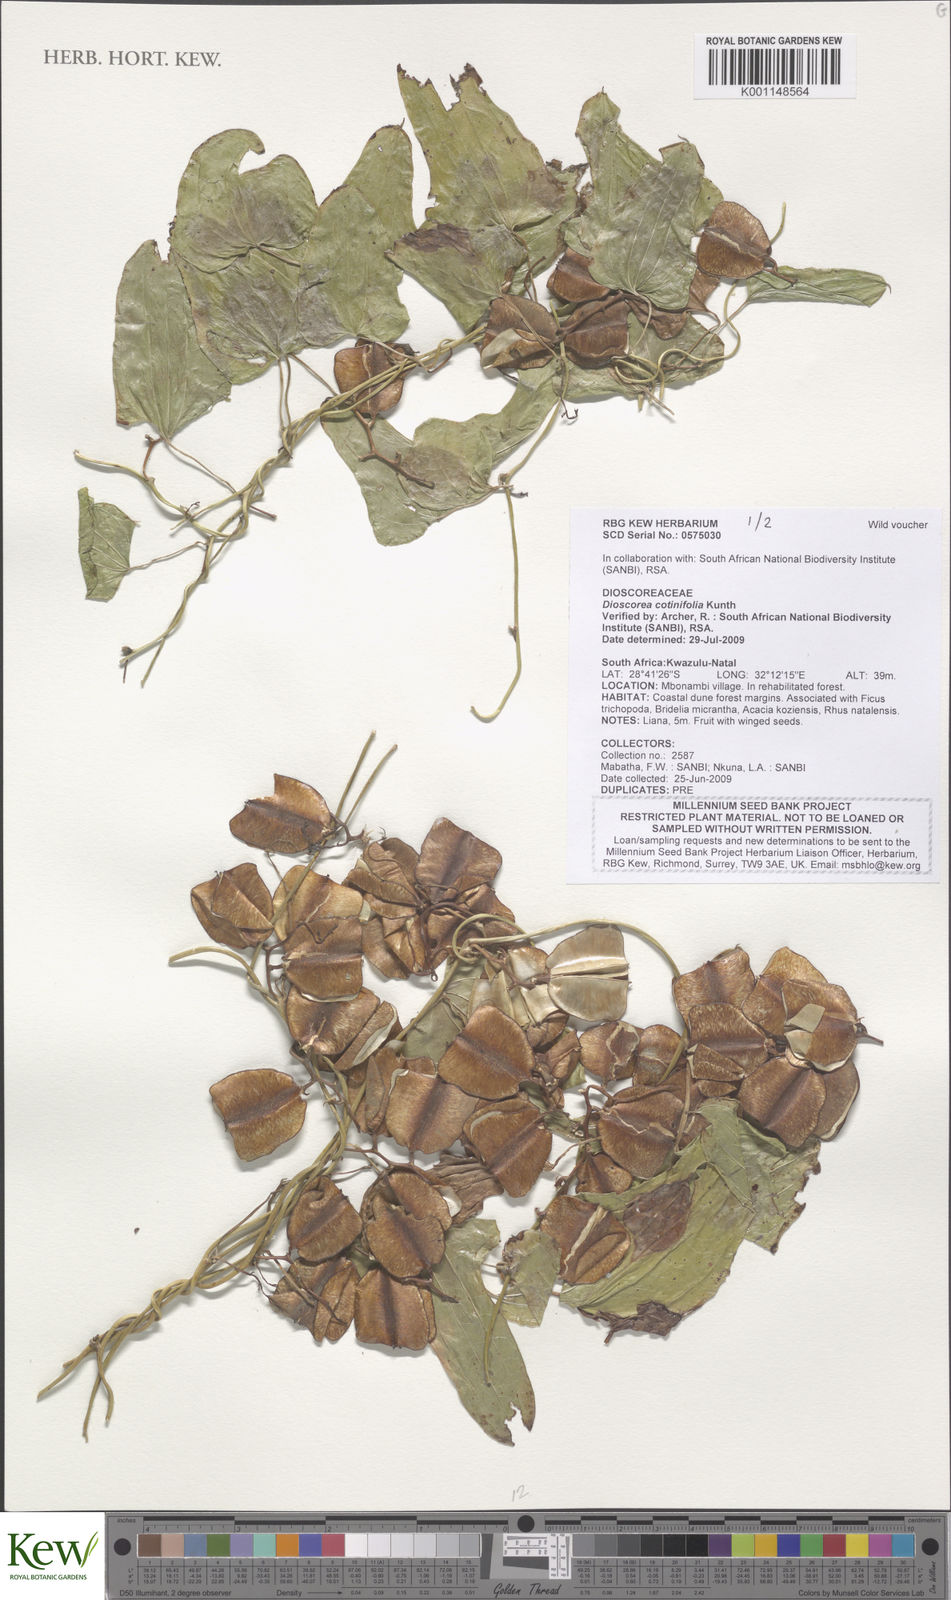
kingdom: Plantae
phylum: Tracheophyta
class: Liliopsida
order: Dioscoreales
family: Dioscoreaceae
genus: Dioscorea
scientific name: Dioscorea cotinifolia
